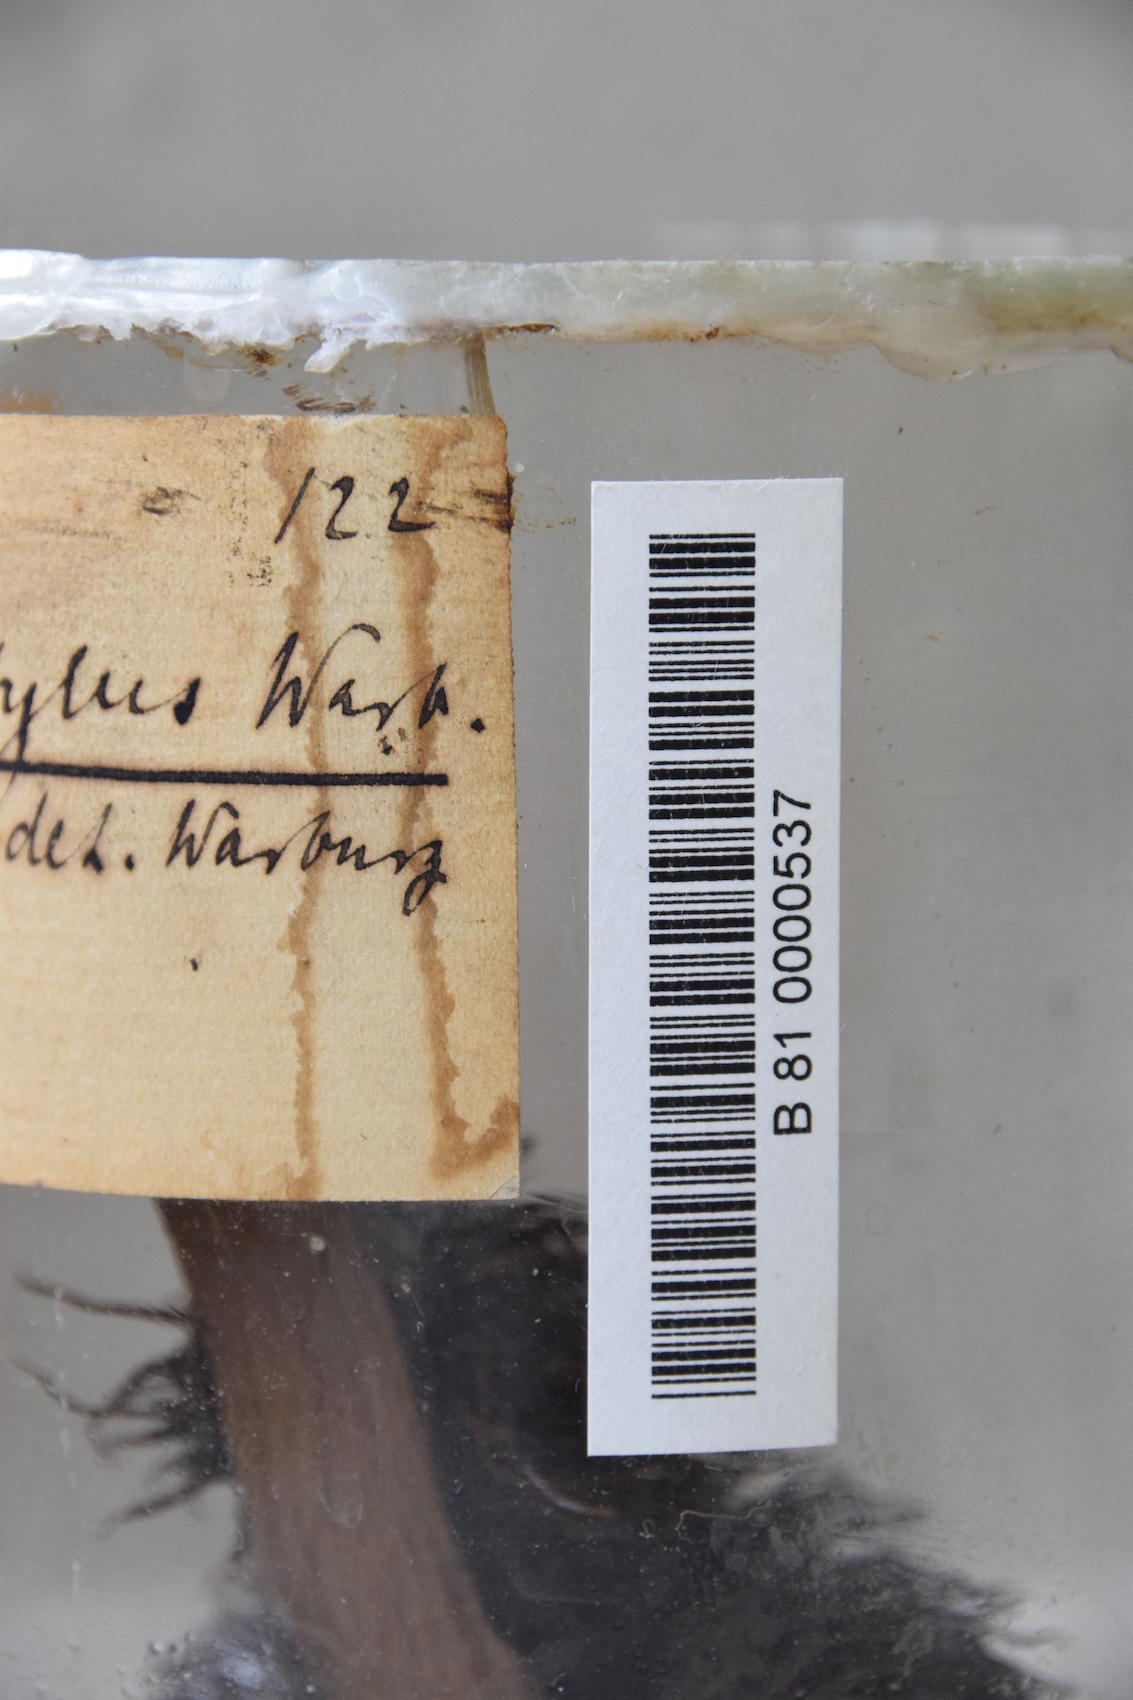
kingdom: Plantae
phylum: Tracheophyta
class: Liliopsida
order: Pandanales
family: Pandanaceae
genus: Benstonea
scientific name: Benstonea setistyla
